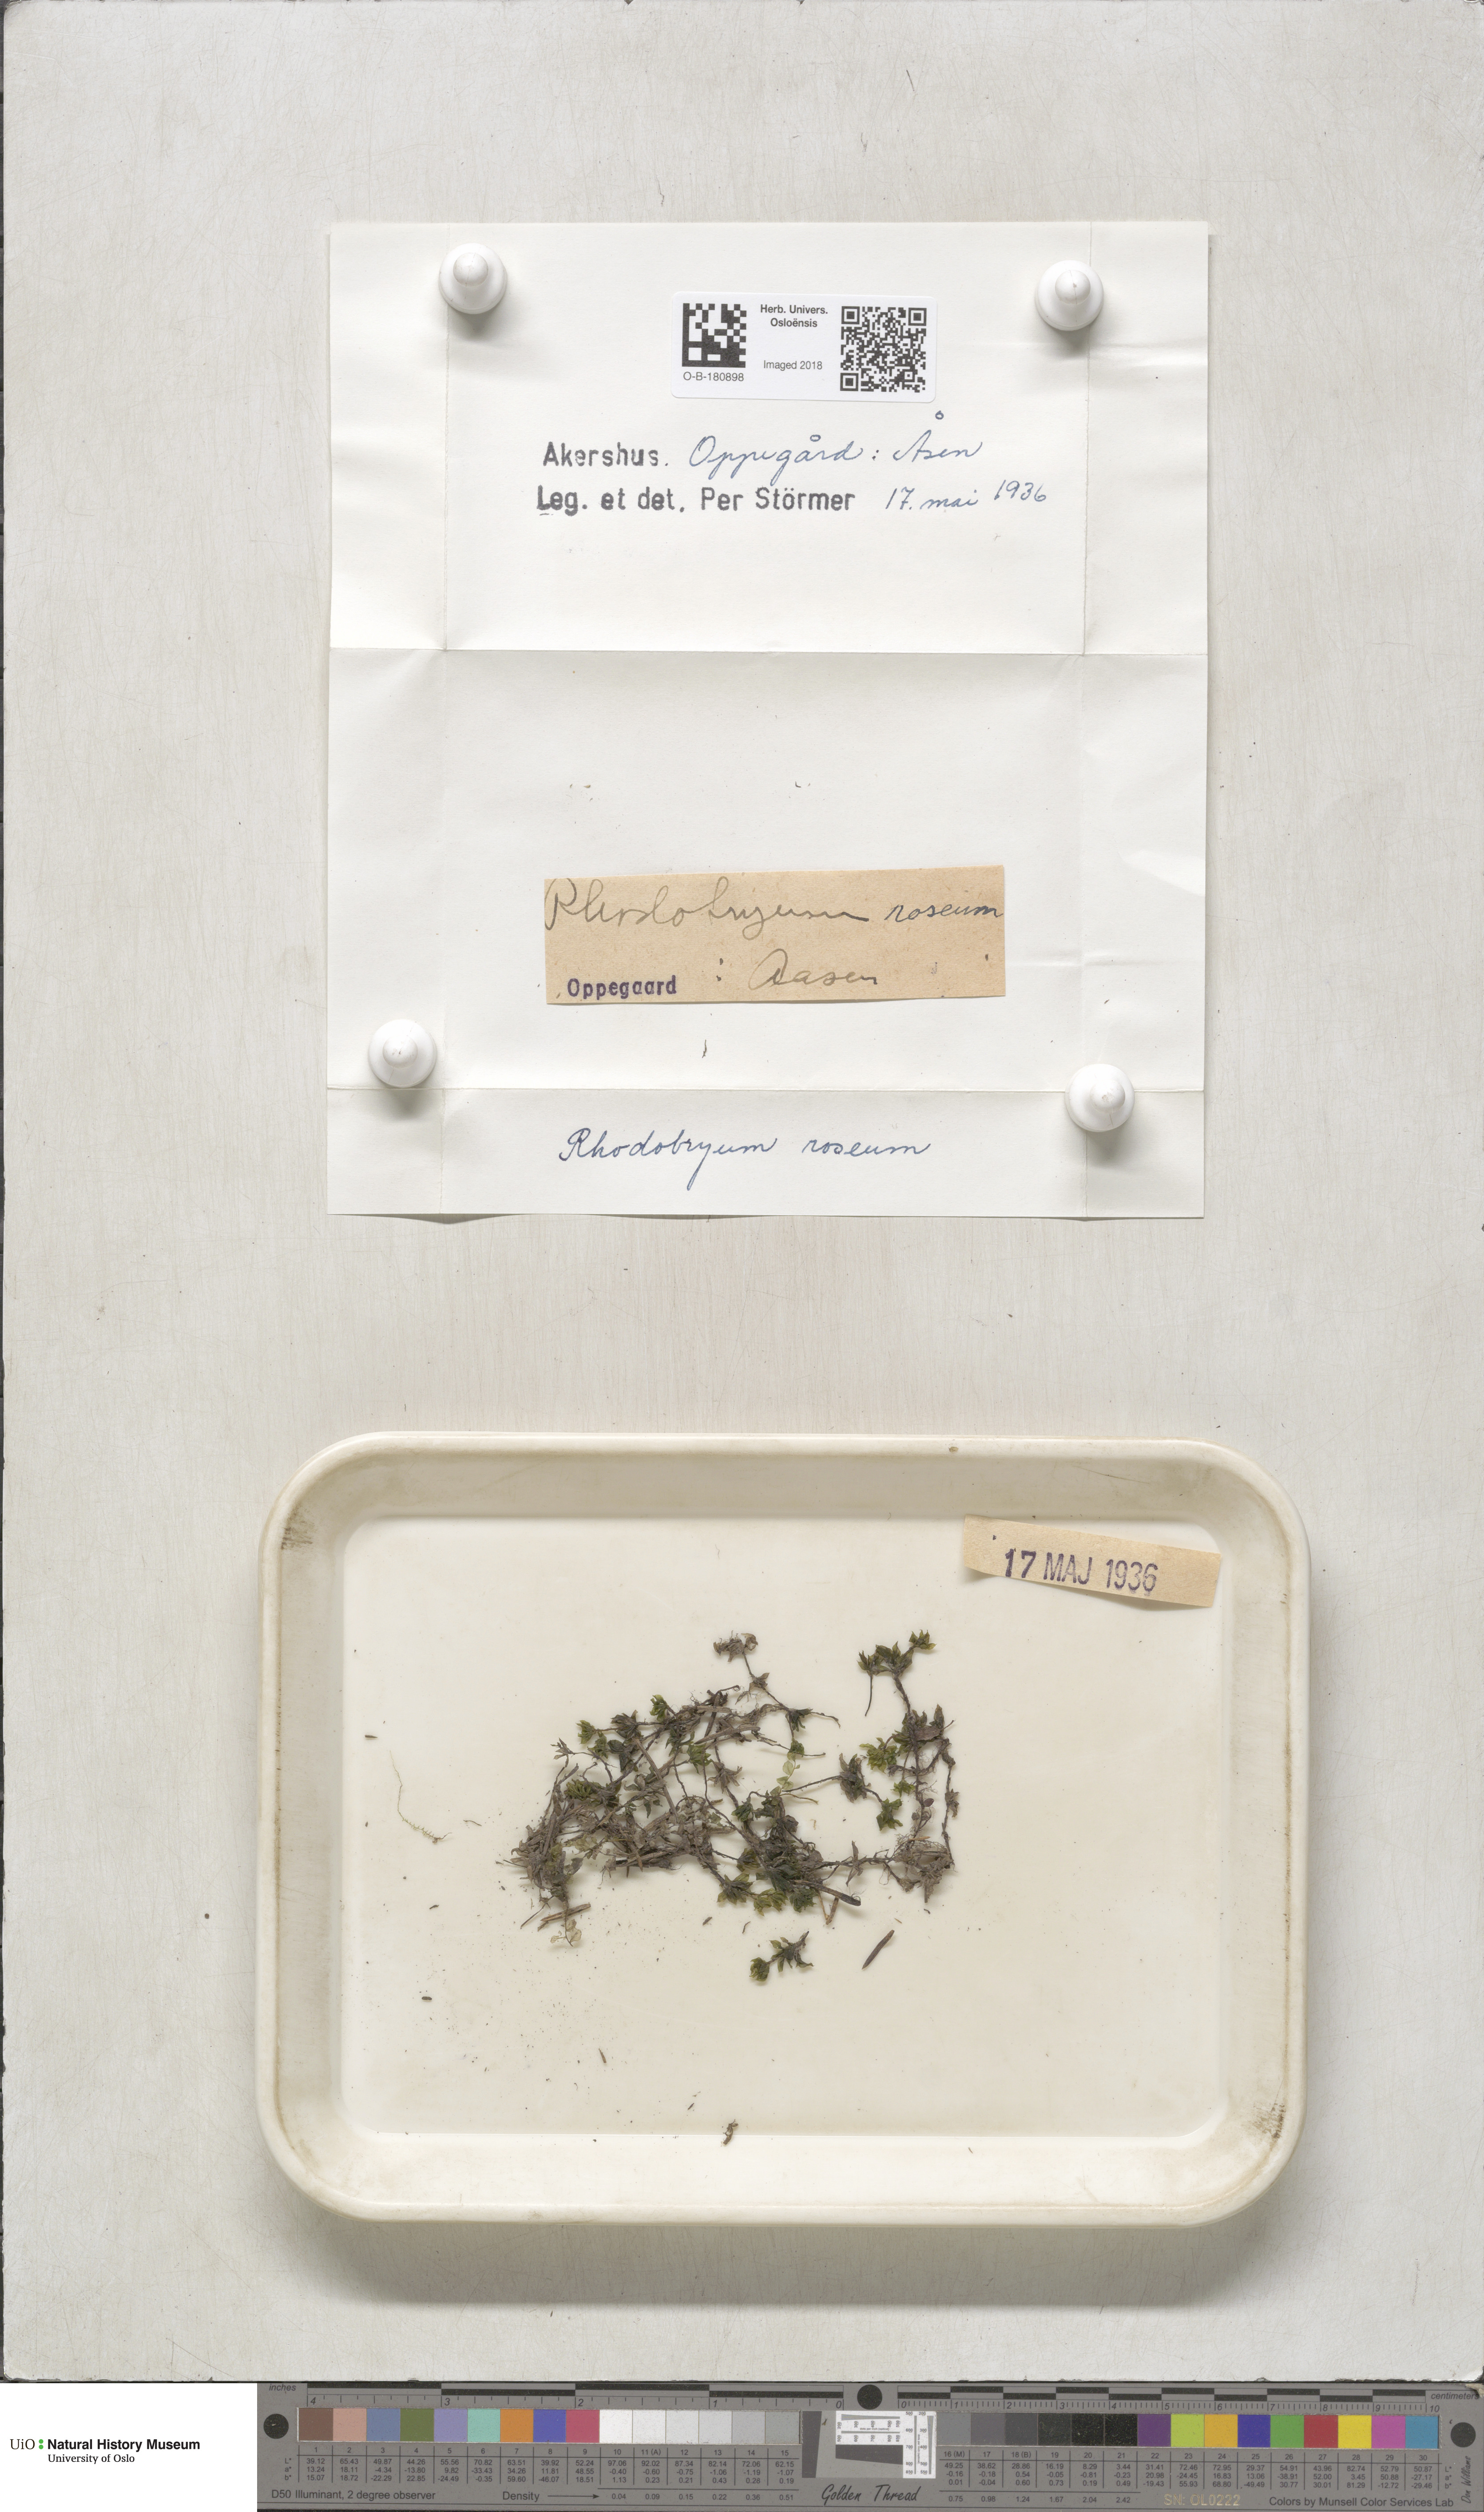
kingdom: Plantae
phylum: Bryophyta
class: Bryopsida
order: Bryales
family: Bryaceae
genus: Rhodobryum
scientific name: Rhodobryum roseum
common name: Rose-moss
